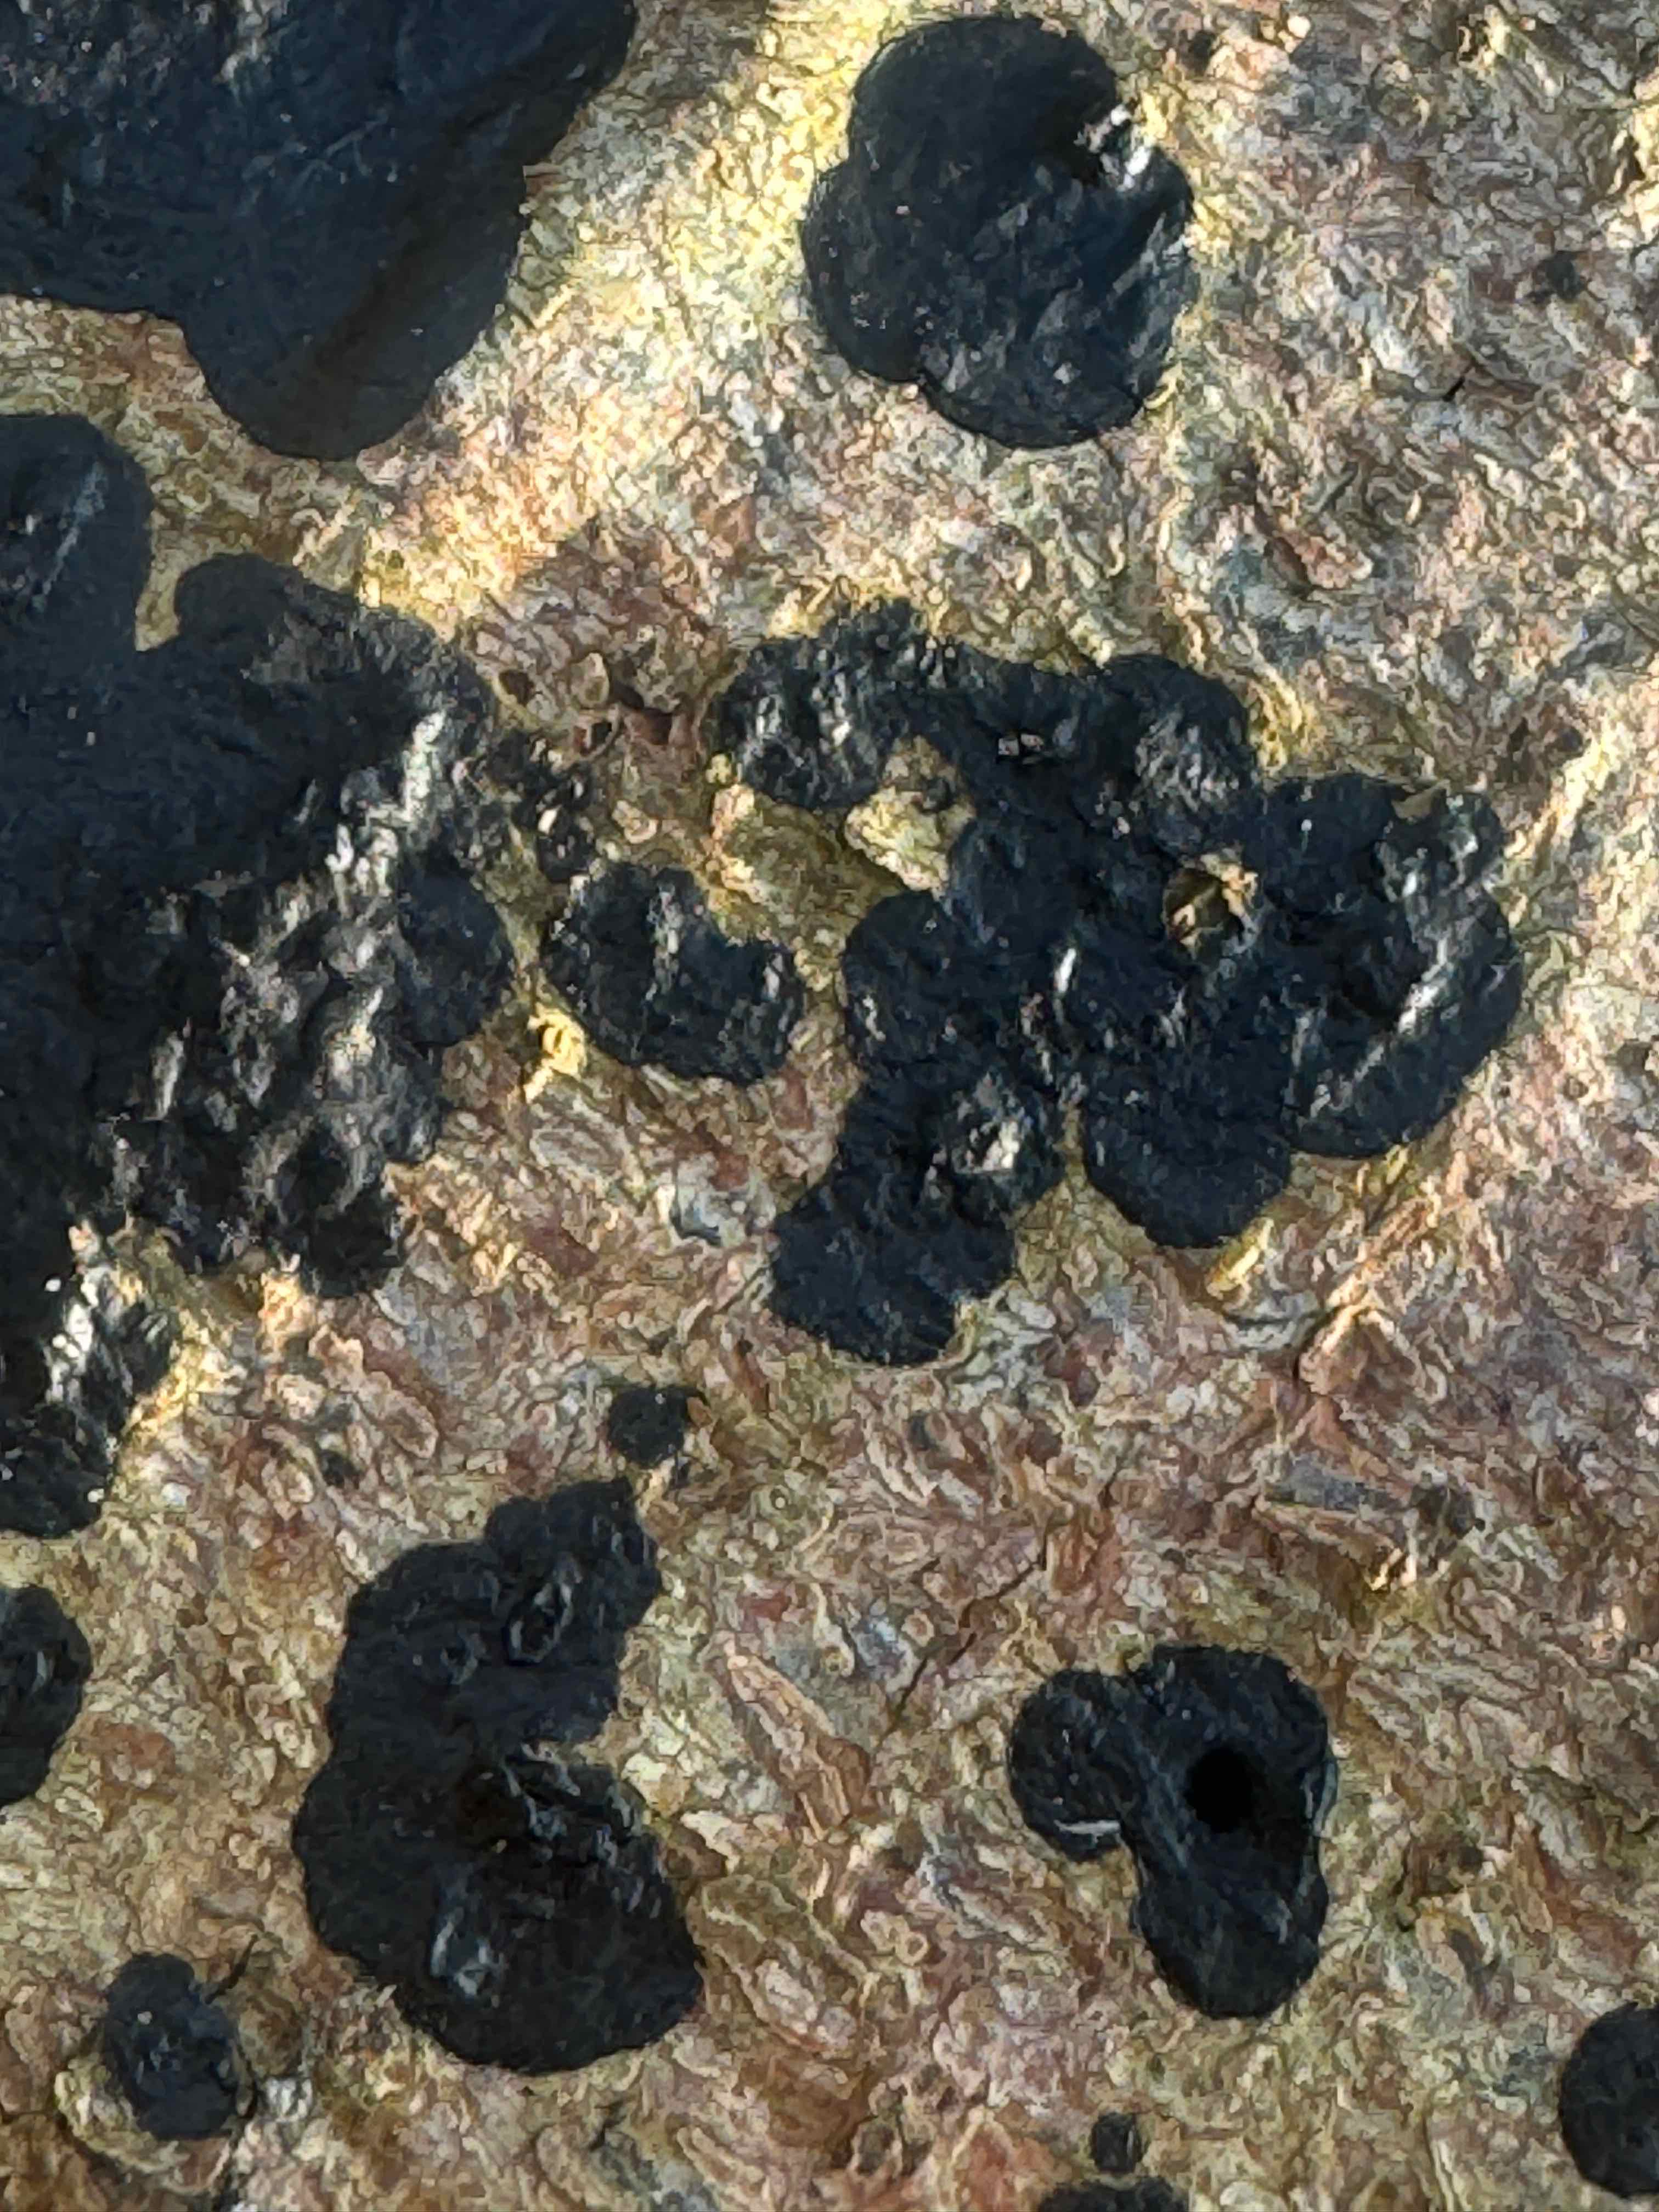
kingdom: Fungi
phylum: Basidiomycota
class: Agaricomycetes
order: Auriculariales
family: Auriculariaceae
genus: Exidia
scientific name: Exidia pithya
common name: gran-bævretop
